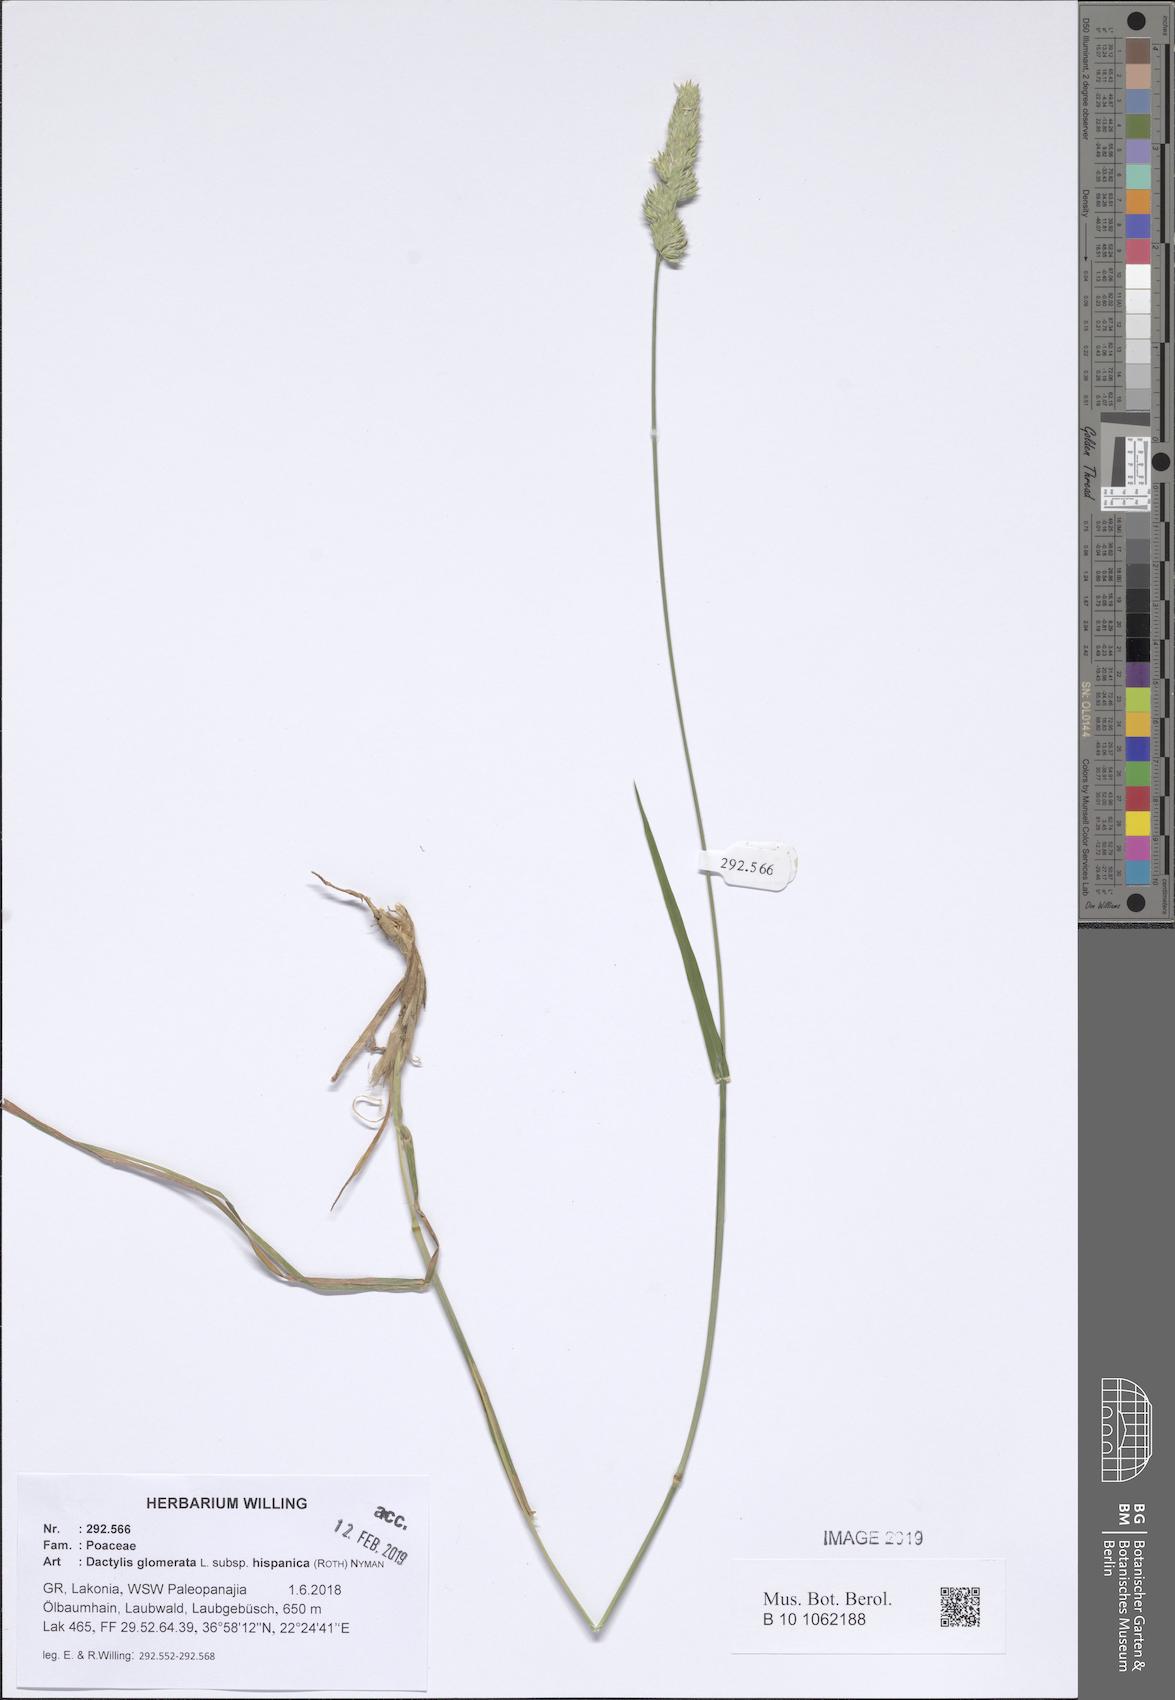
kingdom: Plantae
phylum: Tracheophyta
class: Liliopsida
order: Poales
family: Poaceae
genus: Dactylis
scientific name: Dactylis glomerata
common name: Orchardgrass
